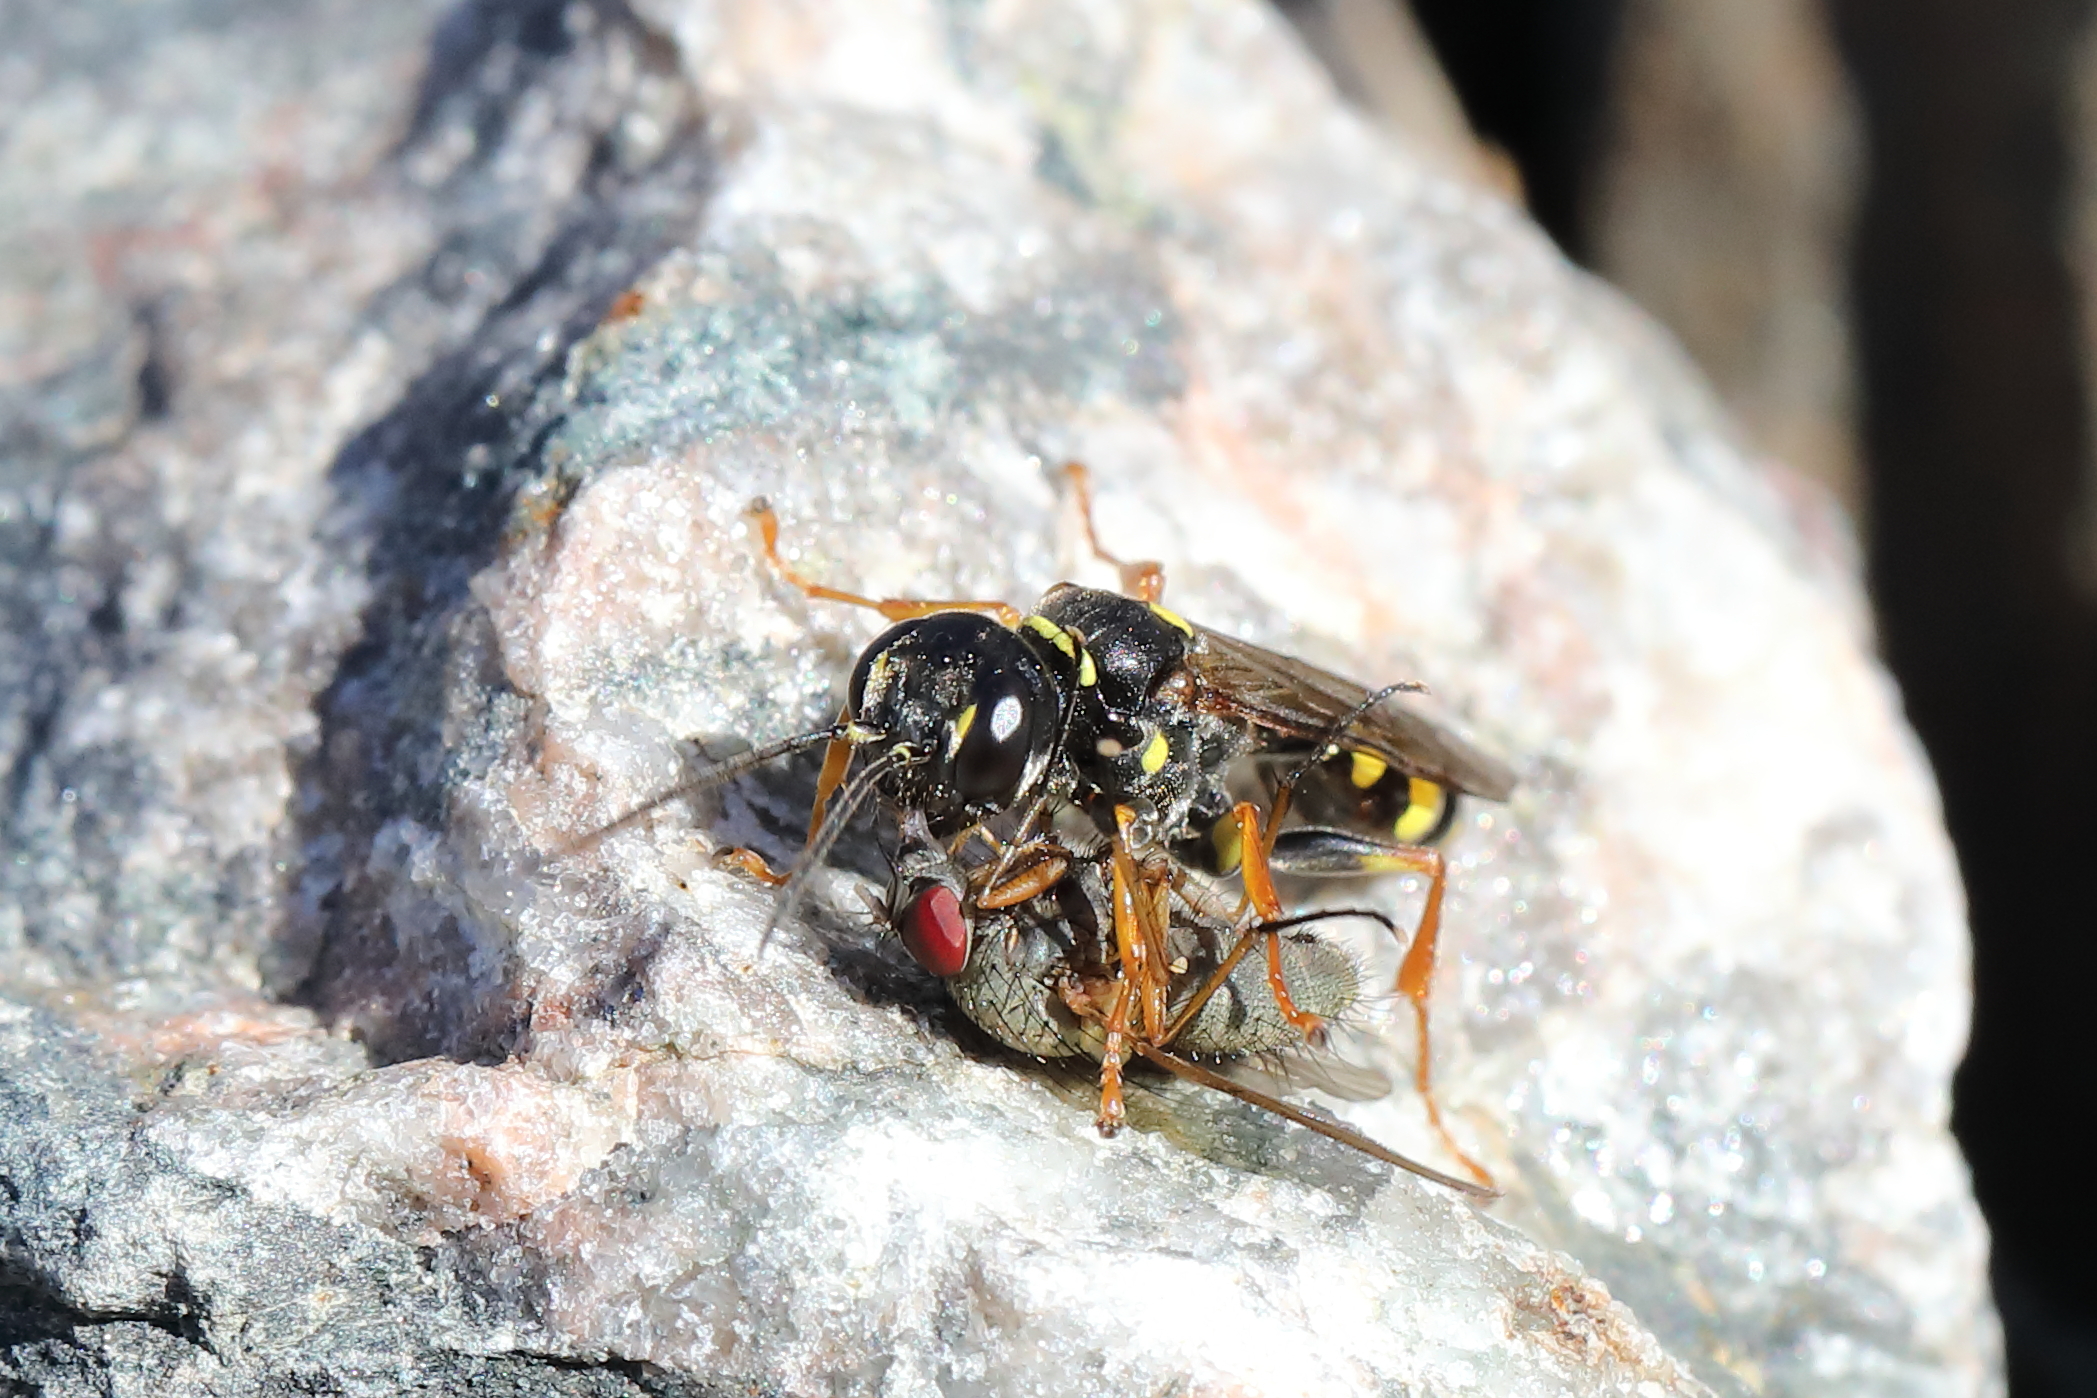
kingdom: Animalia
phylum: Arthropoda
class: Insecta
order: Hymenoptera
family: Crabronidae
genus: Mellinus
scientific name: Mellinus arvensis
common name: Field digger wasp
